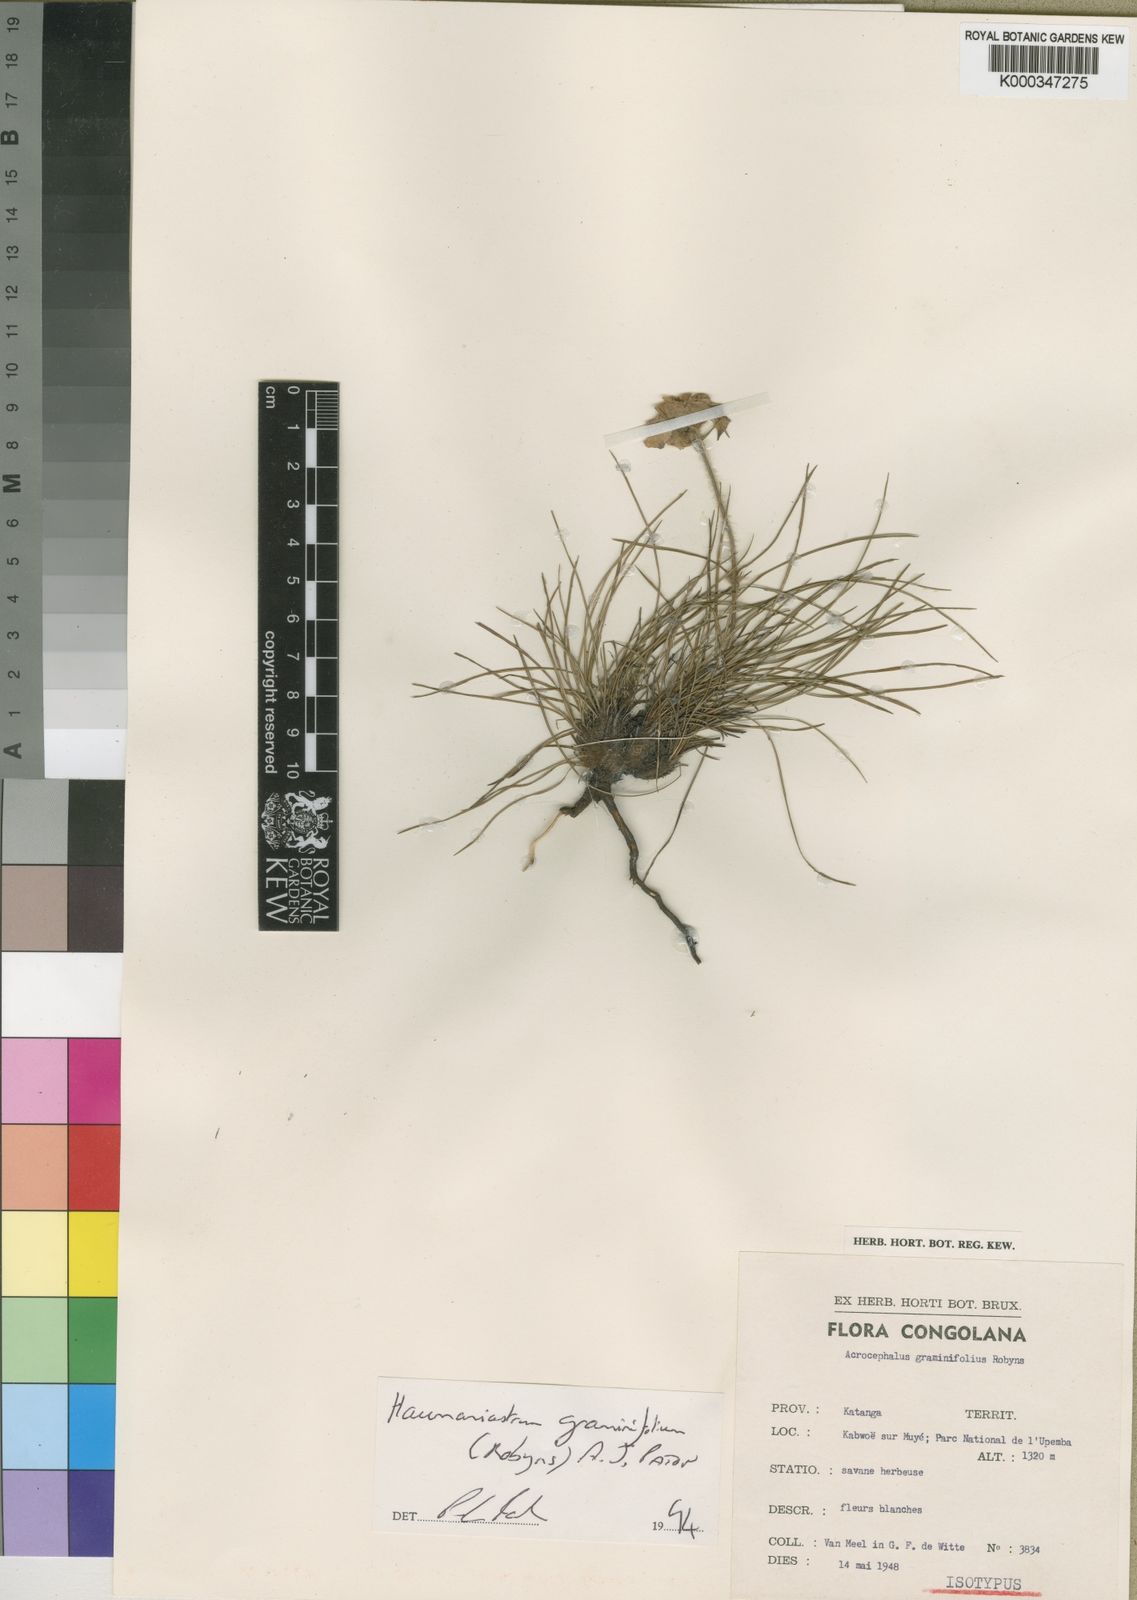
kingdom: Plantae
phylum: Tracheophyta
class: Magnoliopsida
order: Lamiales
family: Lamiaceae
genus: Haumaniastrum
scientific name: Haumaniastrum graminifolium
